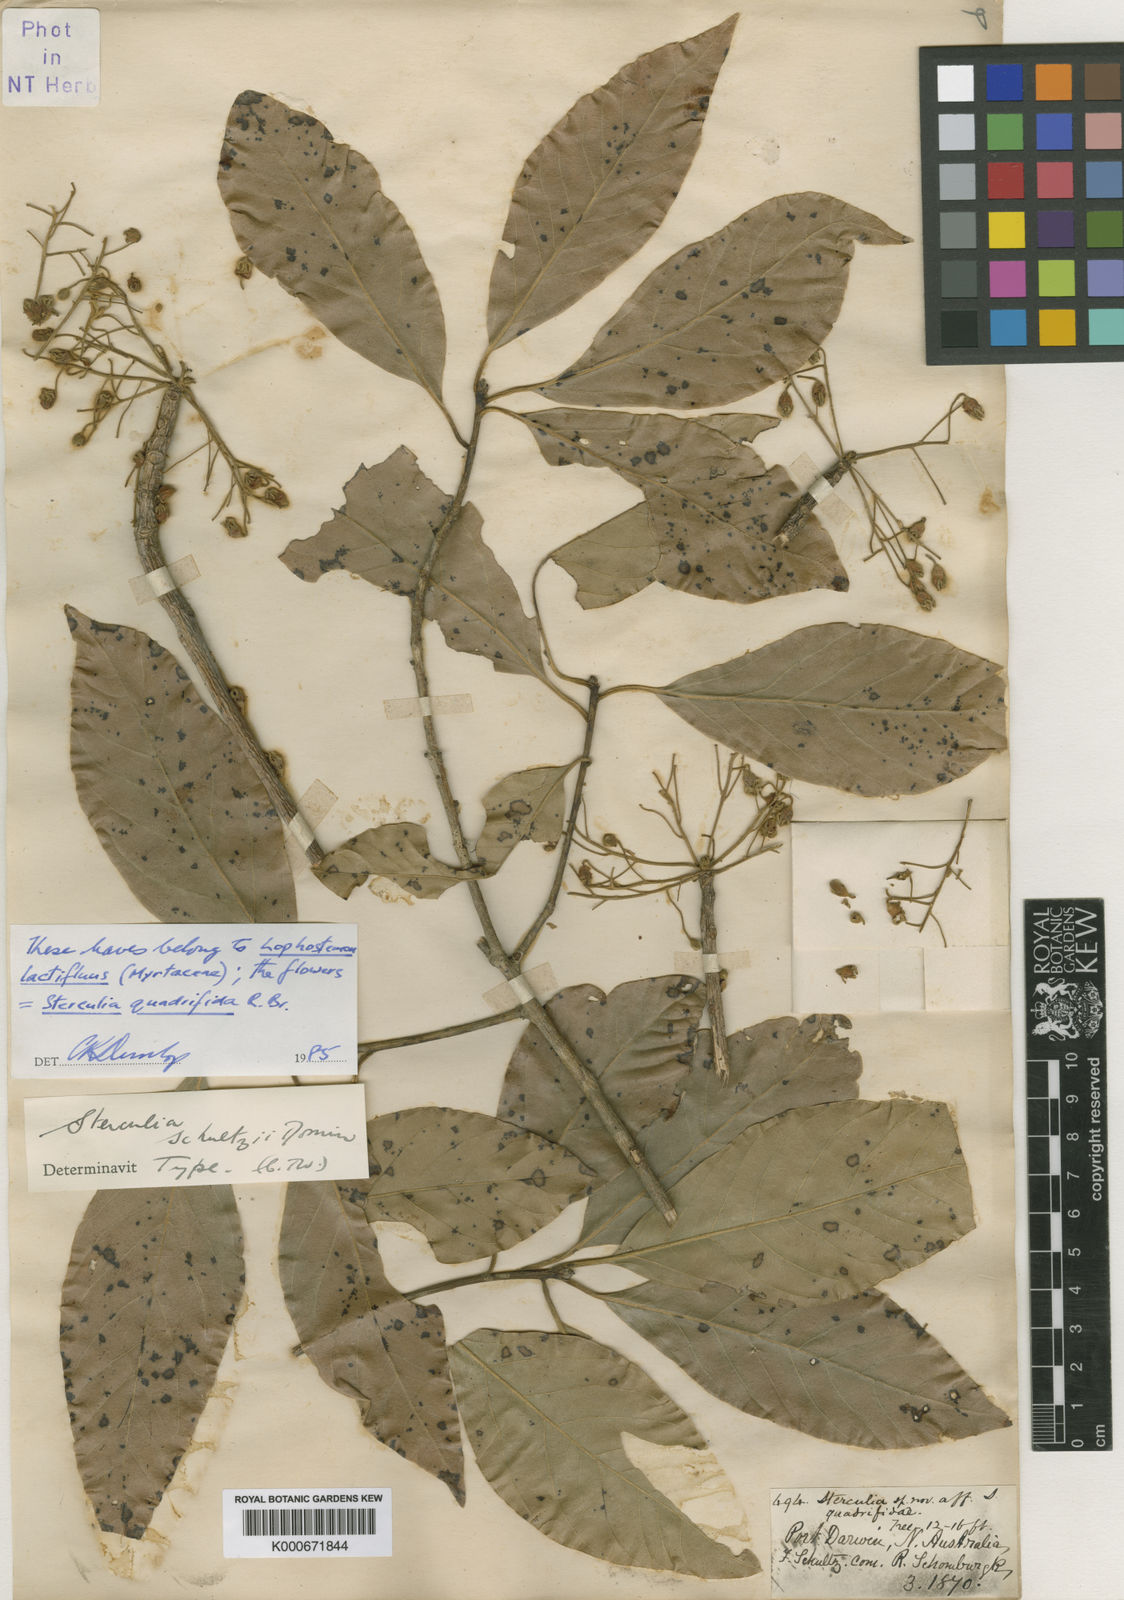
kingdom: Plantae
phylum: Tracheophyta
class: Magnoliopsida
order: Malvales
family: Malvaceae
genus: Sterculia
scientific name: Sterculia schultzii
